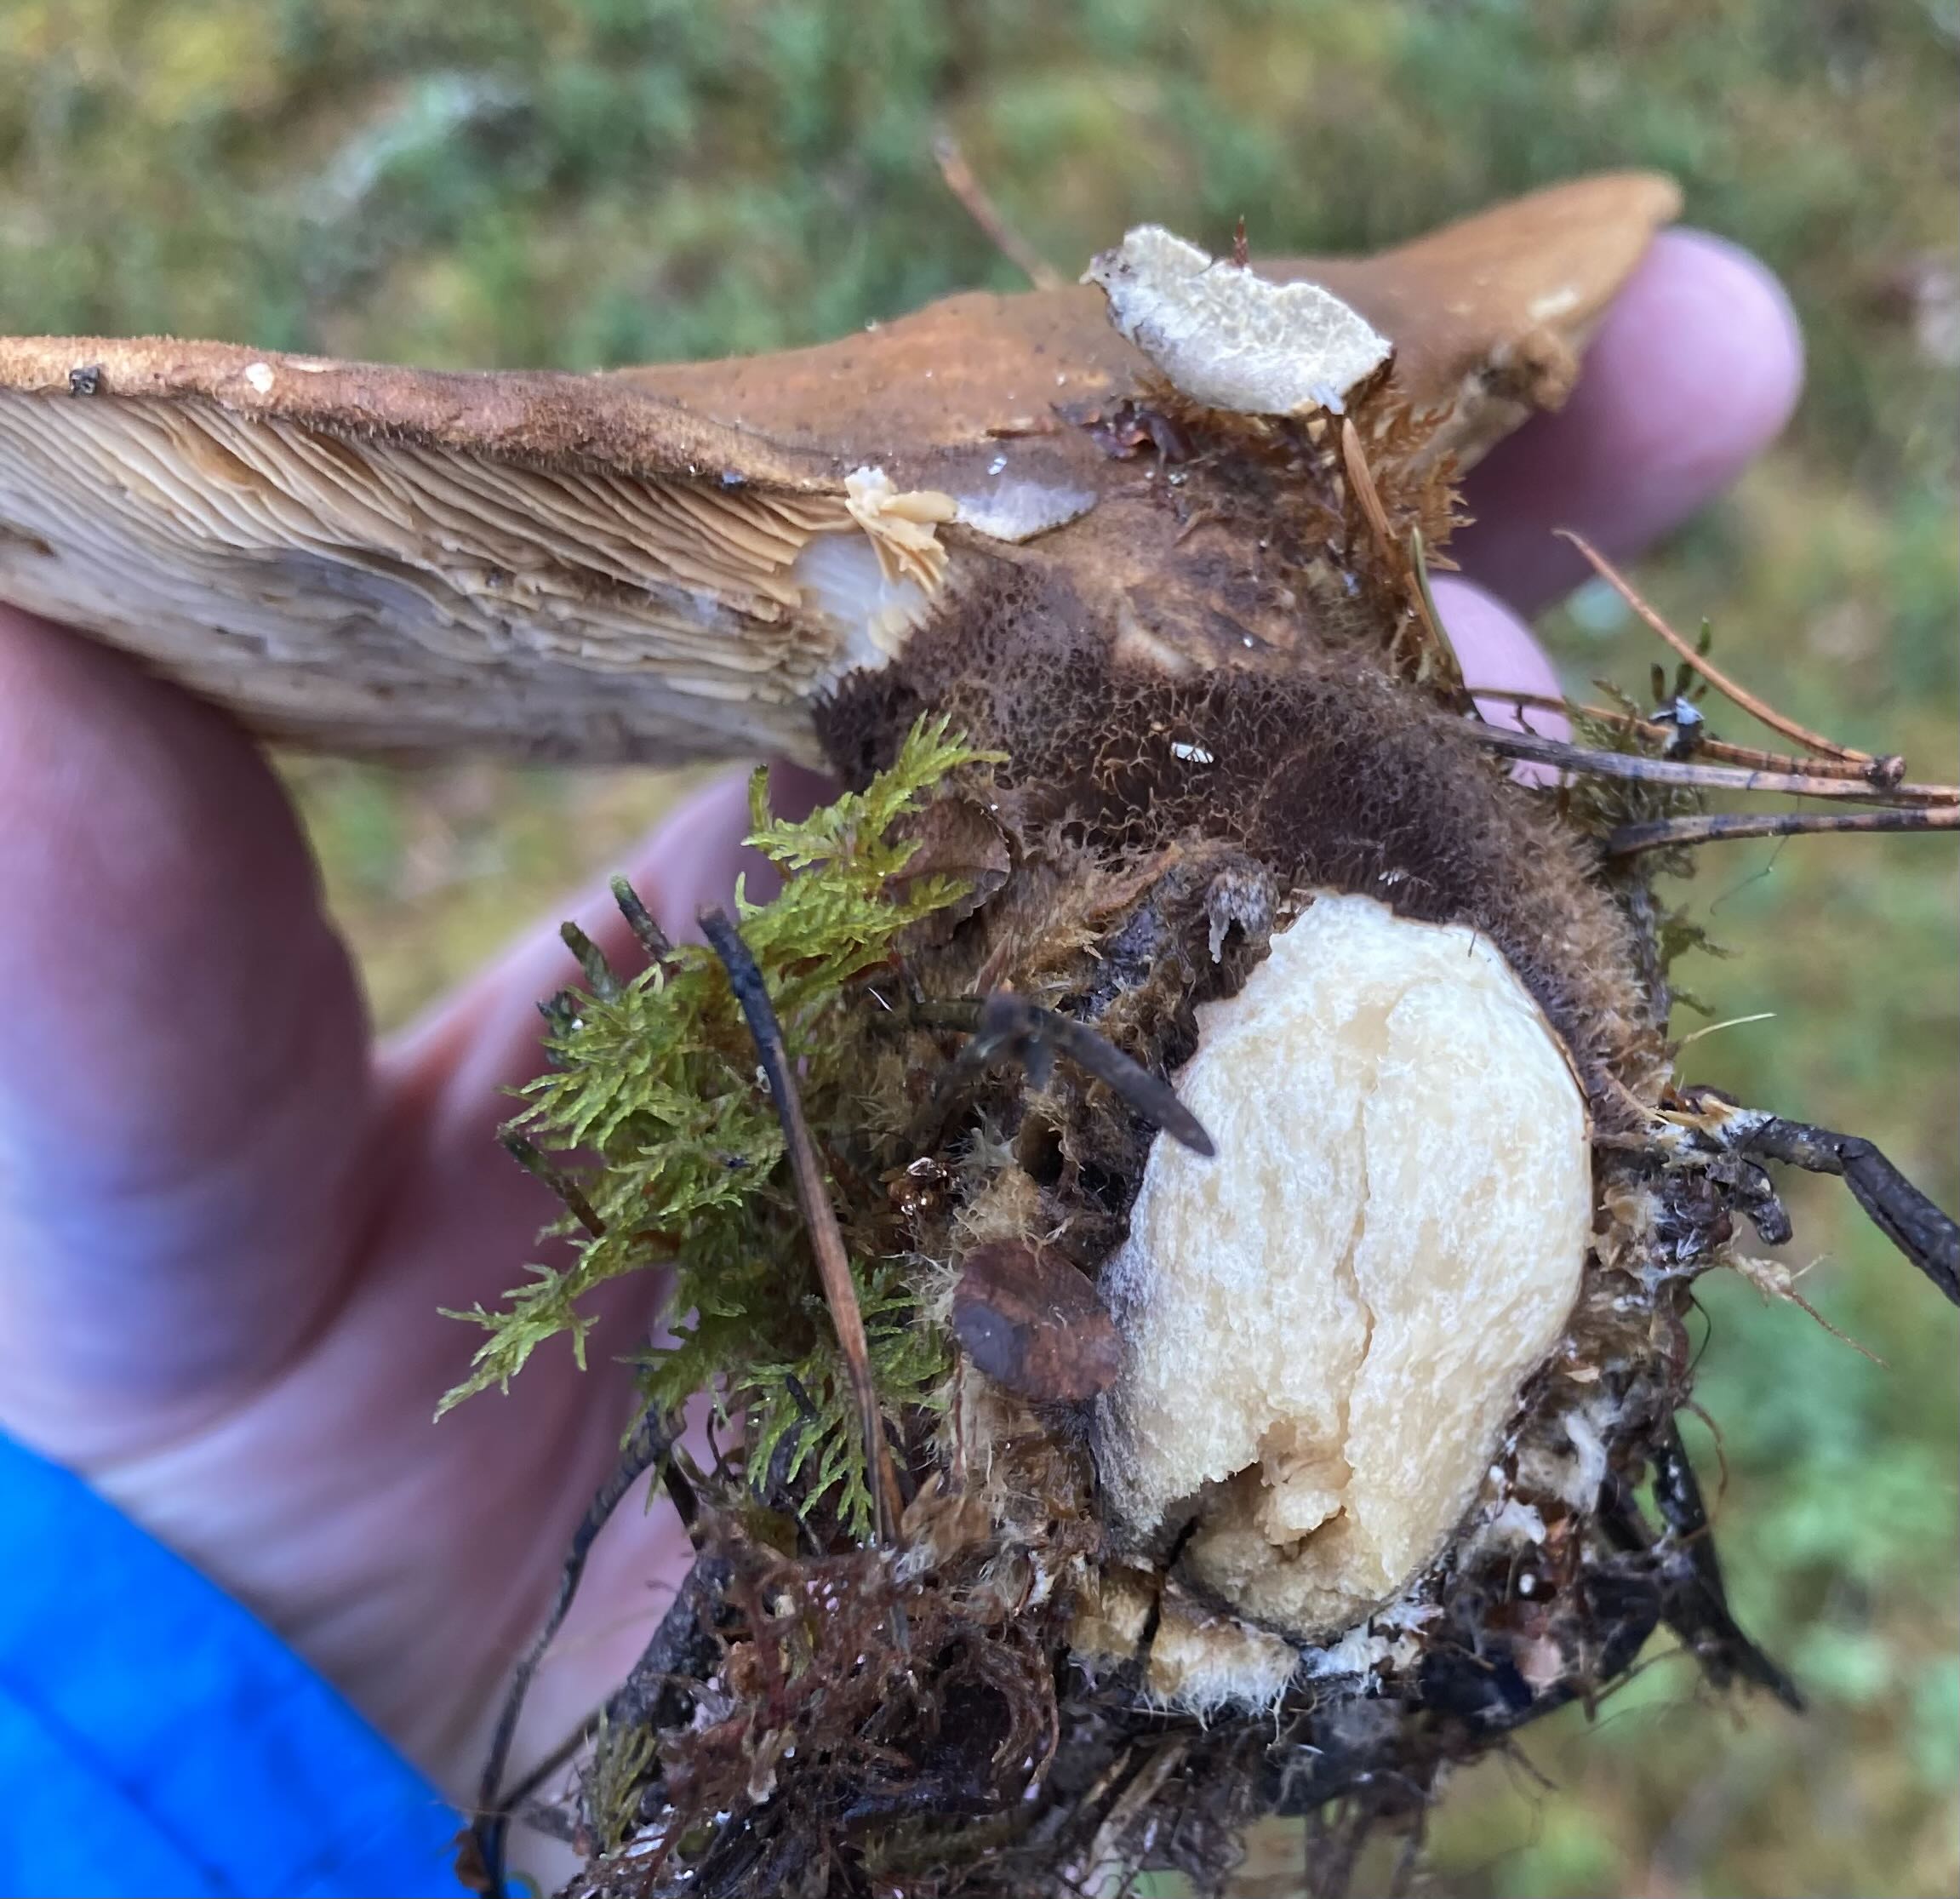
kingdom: Fungi
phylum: Basidiomycota
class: Agaricomycetes
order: Boletales
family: Tapinellaceae
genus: Tapinella
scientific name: Tapinella atrotomentosa
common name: sortfiltet viftesvamp
